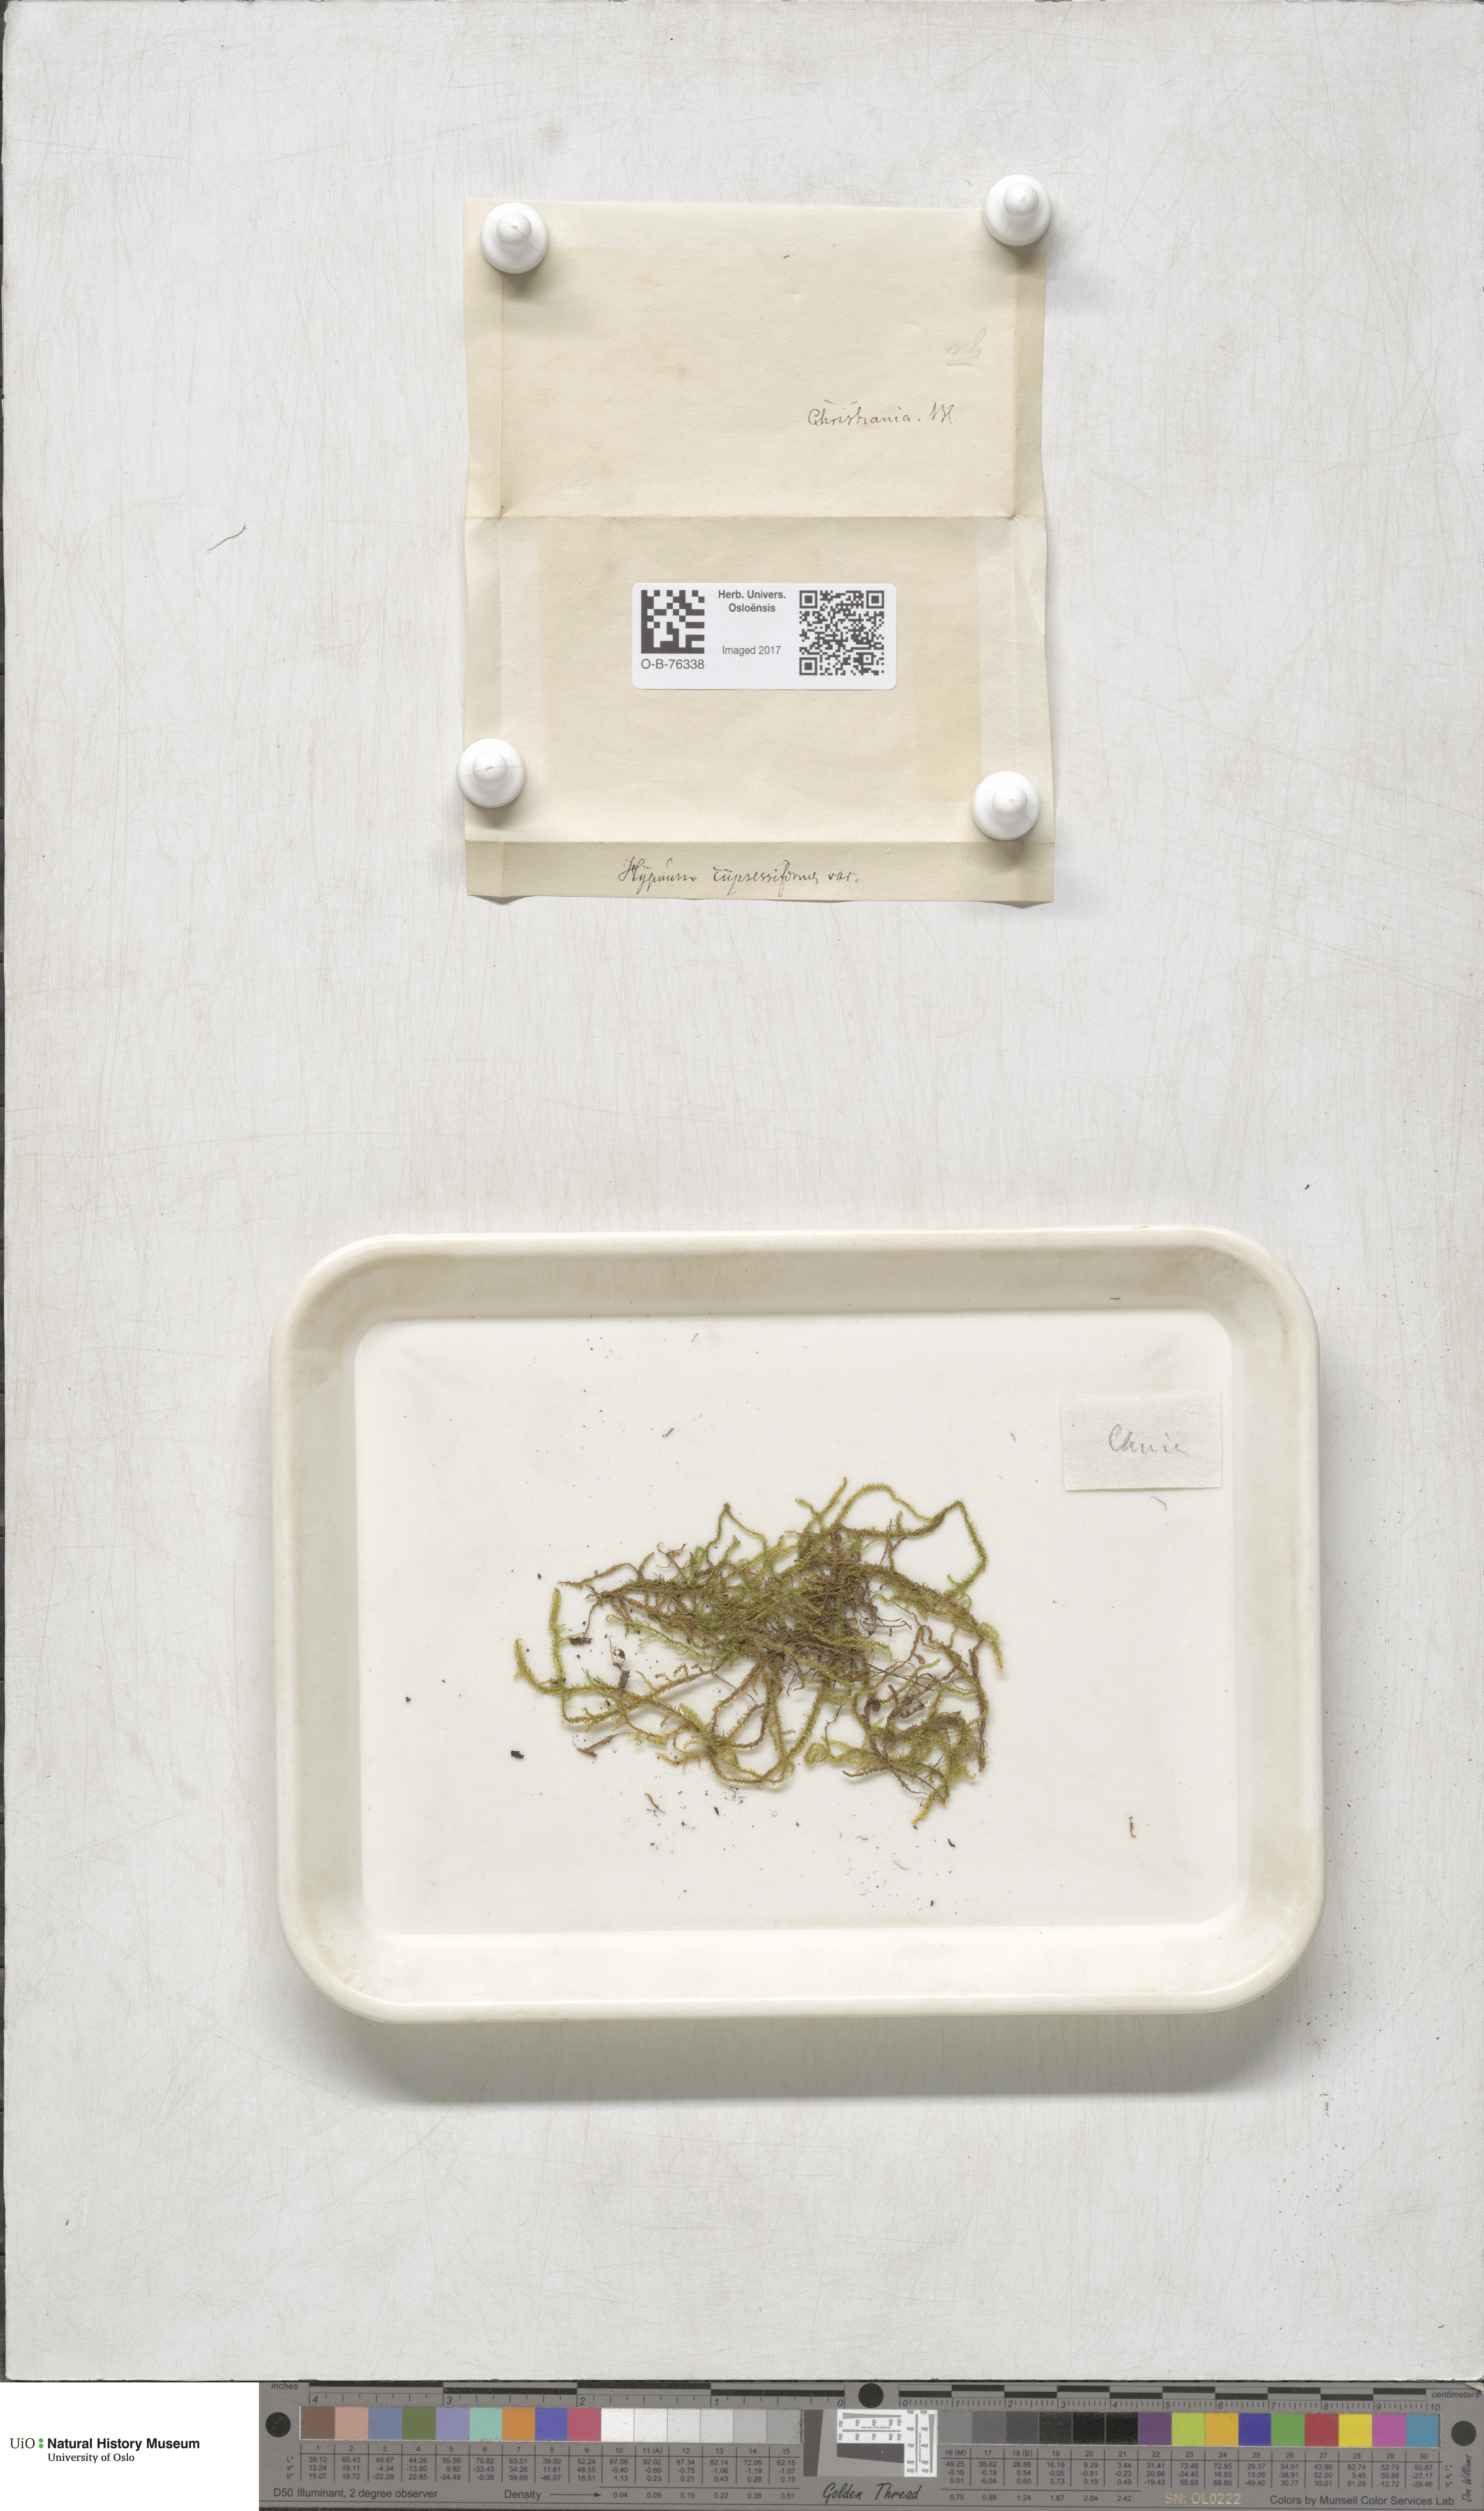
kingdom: Plantae
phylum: Bryophyta
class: Bryopsida
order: Hypnales
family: Hypnaceae
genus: Hypnum
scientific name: Hypnum cupressiforme
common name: Cypress-leaved plait-moss
